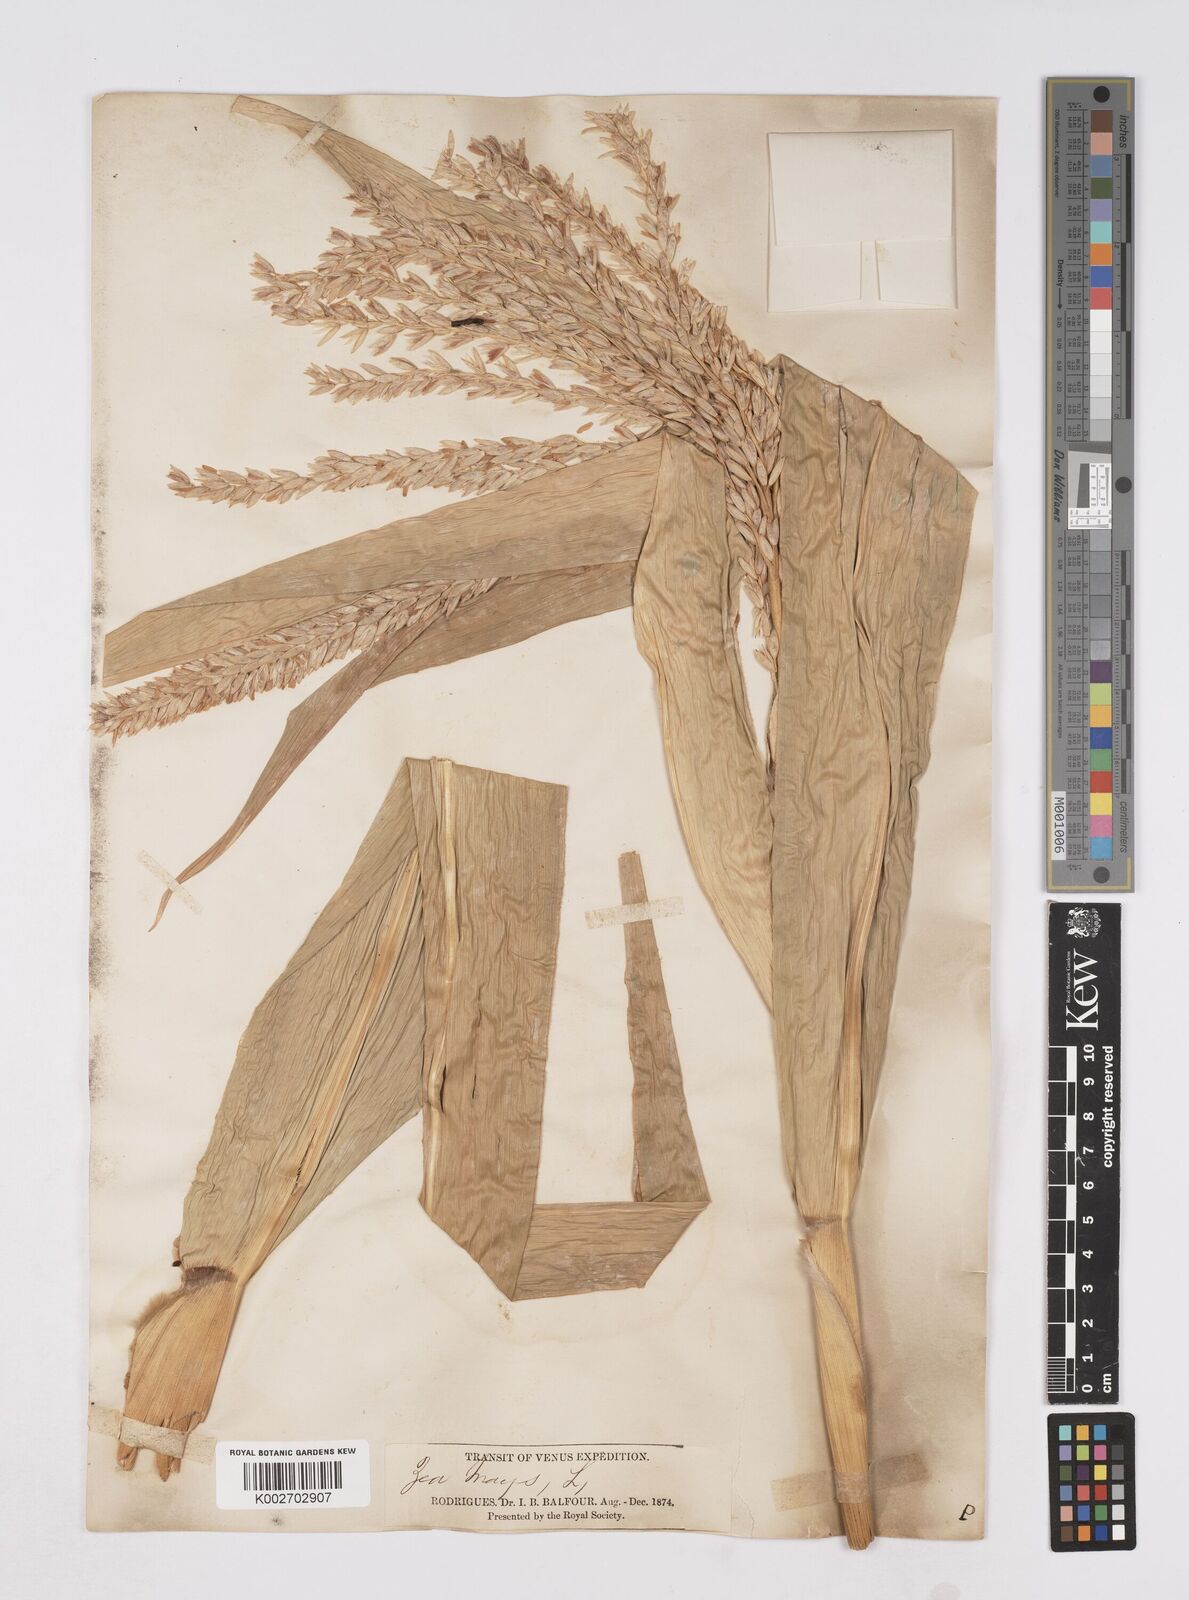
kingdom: Plantae
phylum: Tracheophyta
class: Liliopsida
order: Poales
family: Poaceae
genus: Zea
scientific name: Zea mays
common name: Maize
